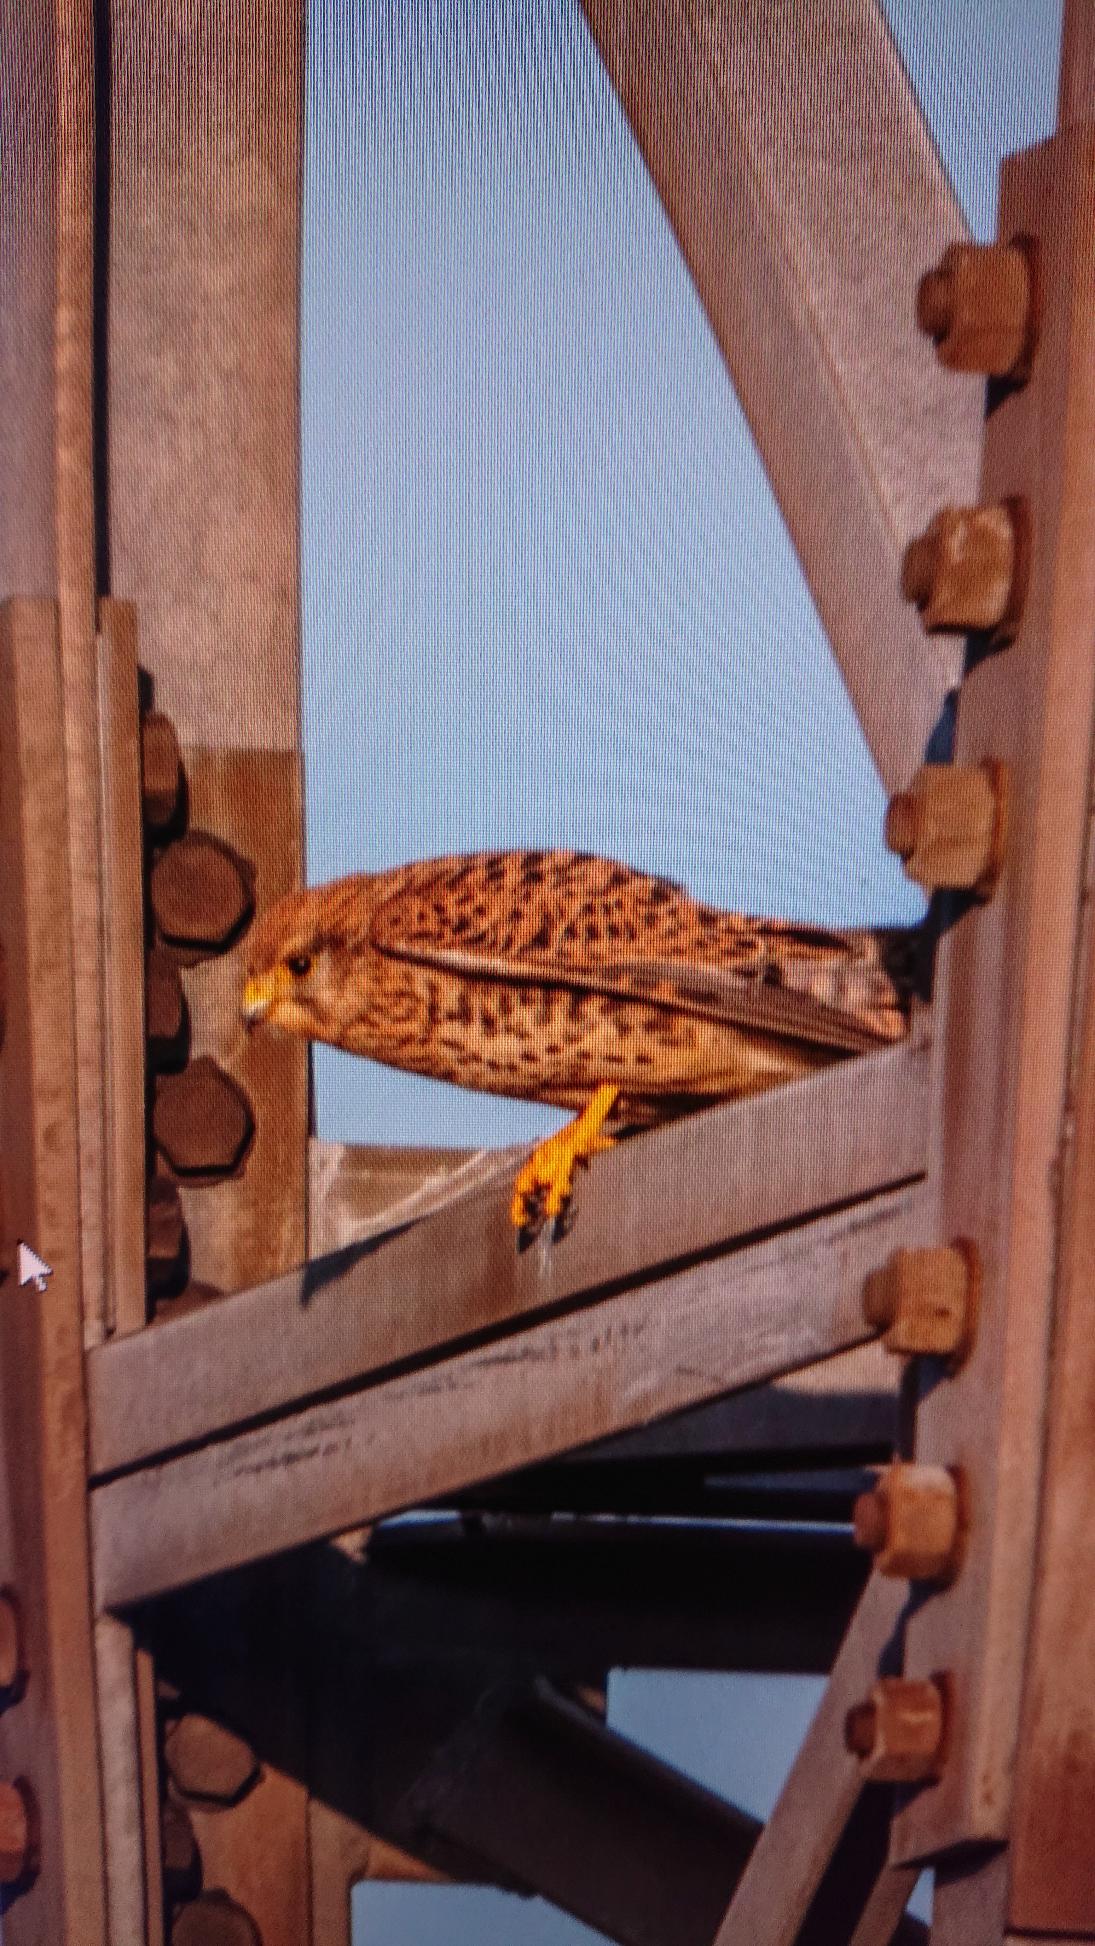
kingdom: Animalia
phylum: Chordata
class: Aves
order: Falconiformes
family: Falconidae
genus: Falco
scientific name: Falco tinnunculus
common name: Tårnfalk
